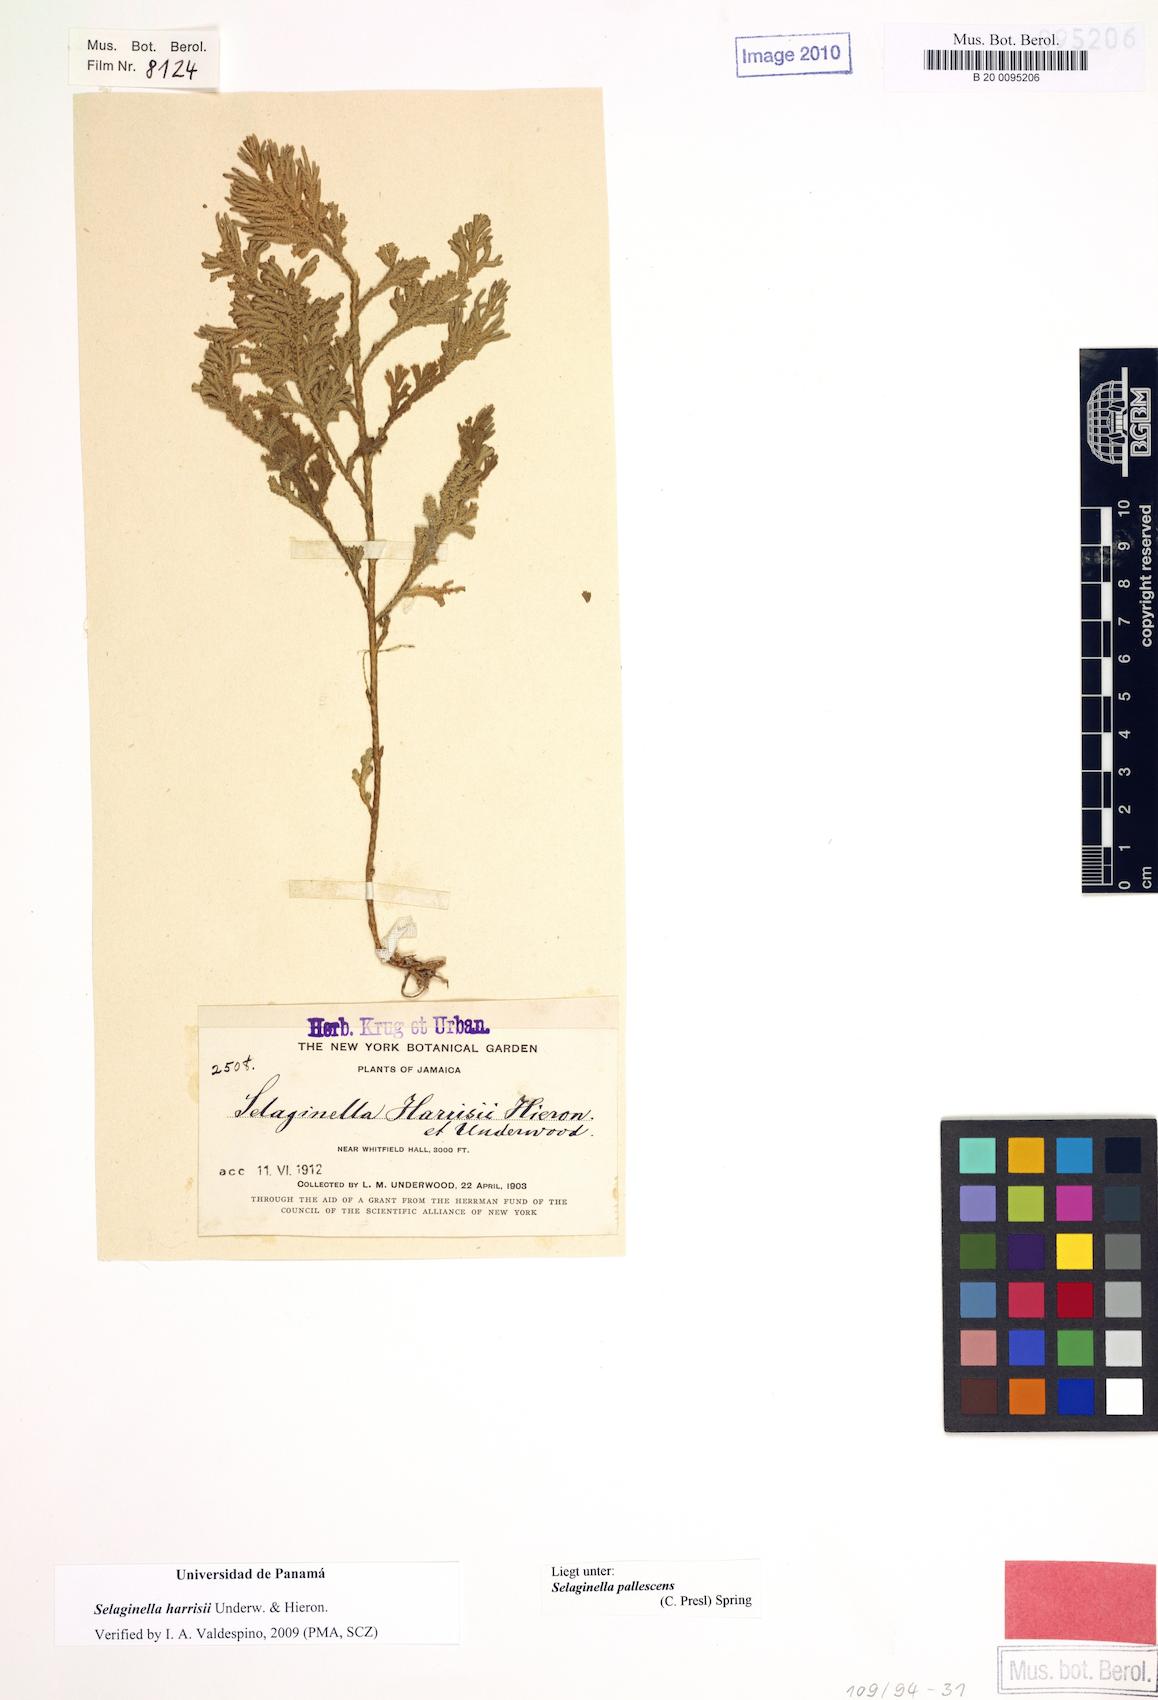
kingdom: Plantae
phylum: Tracheophyta
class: Lycopodiopsida
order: Selaginellales
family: Selaginellaceae
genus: Selaginella
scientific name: Selaginella harrisii
